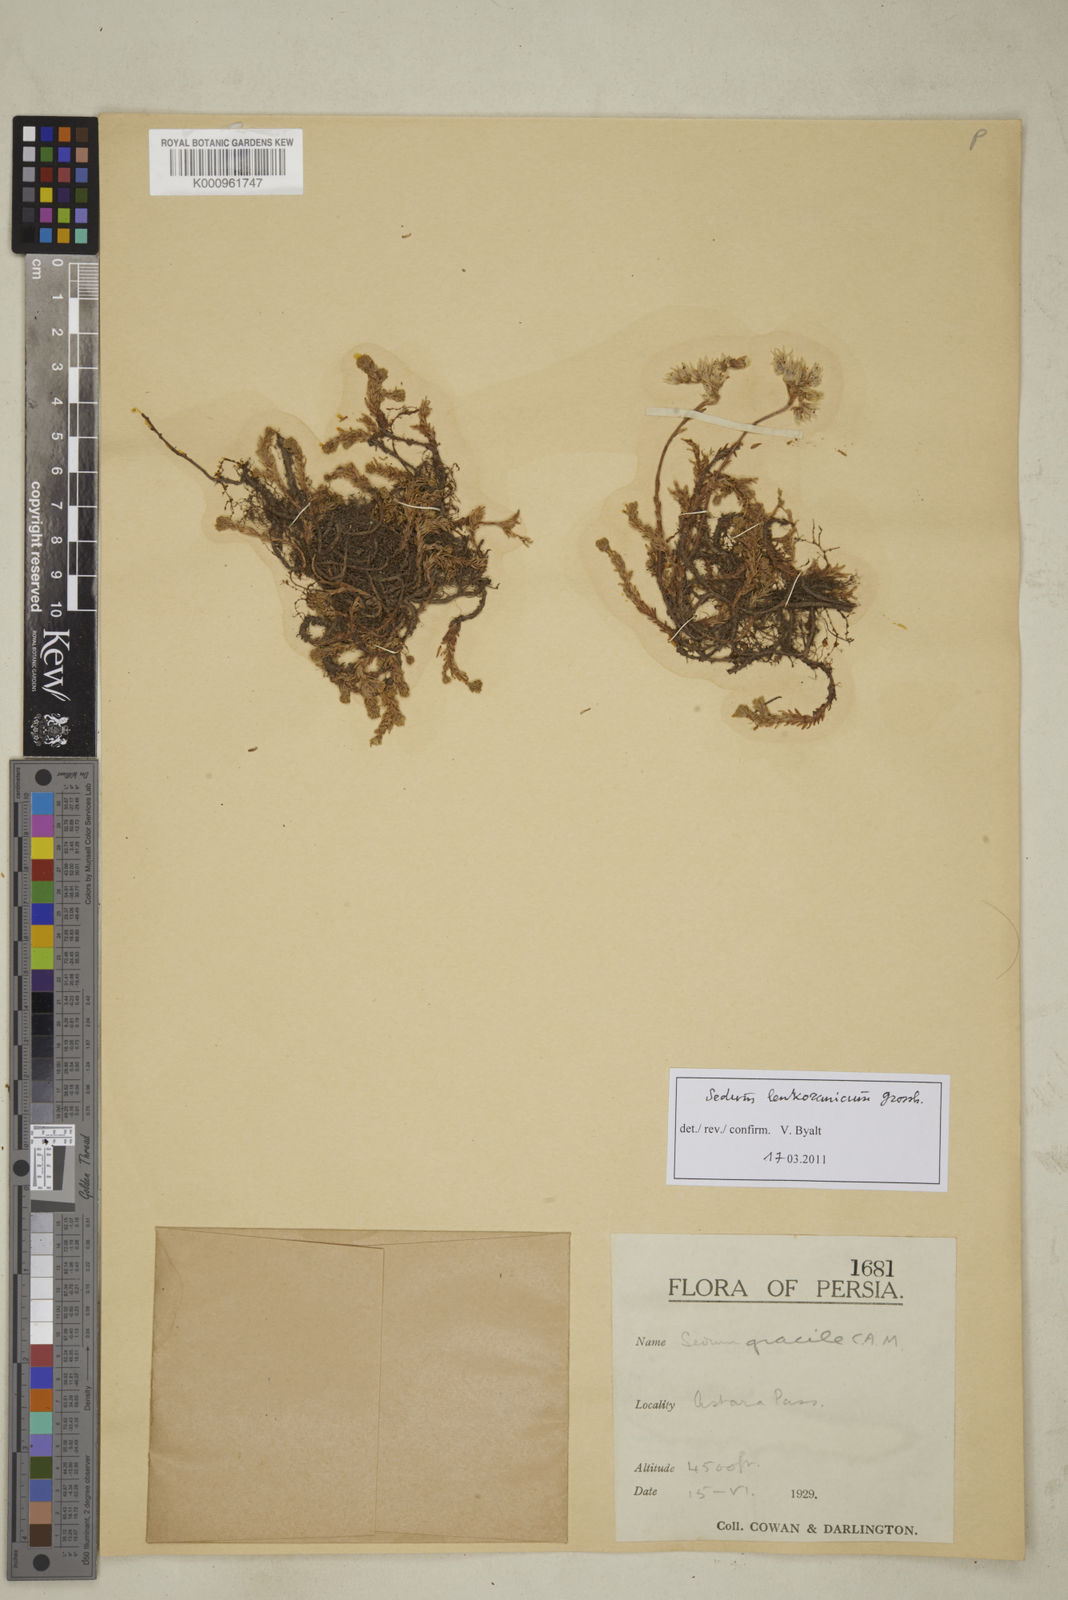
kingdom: Plantae
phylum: Tracheophyta
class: Magnoliopsida
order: Saxifragales
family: Crassulaceae
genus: Sedum
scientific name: Sedum gracile
